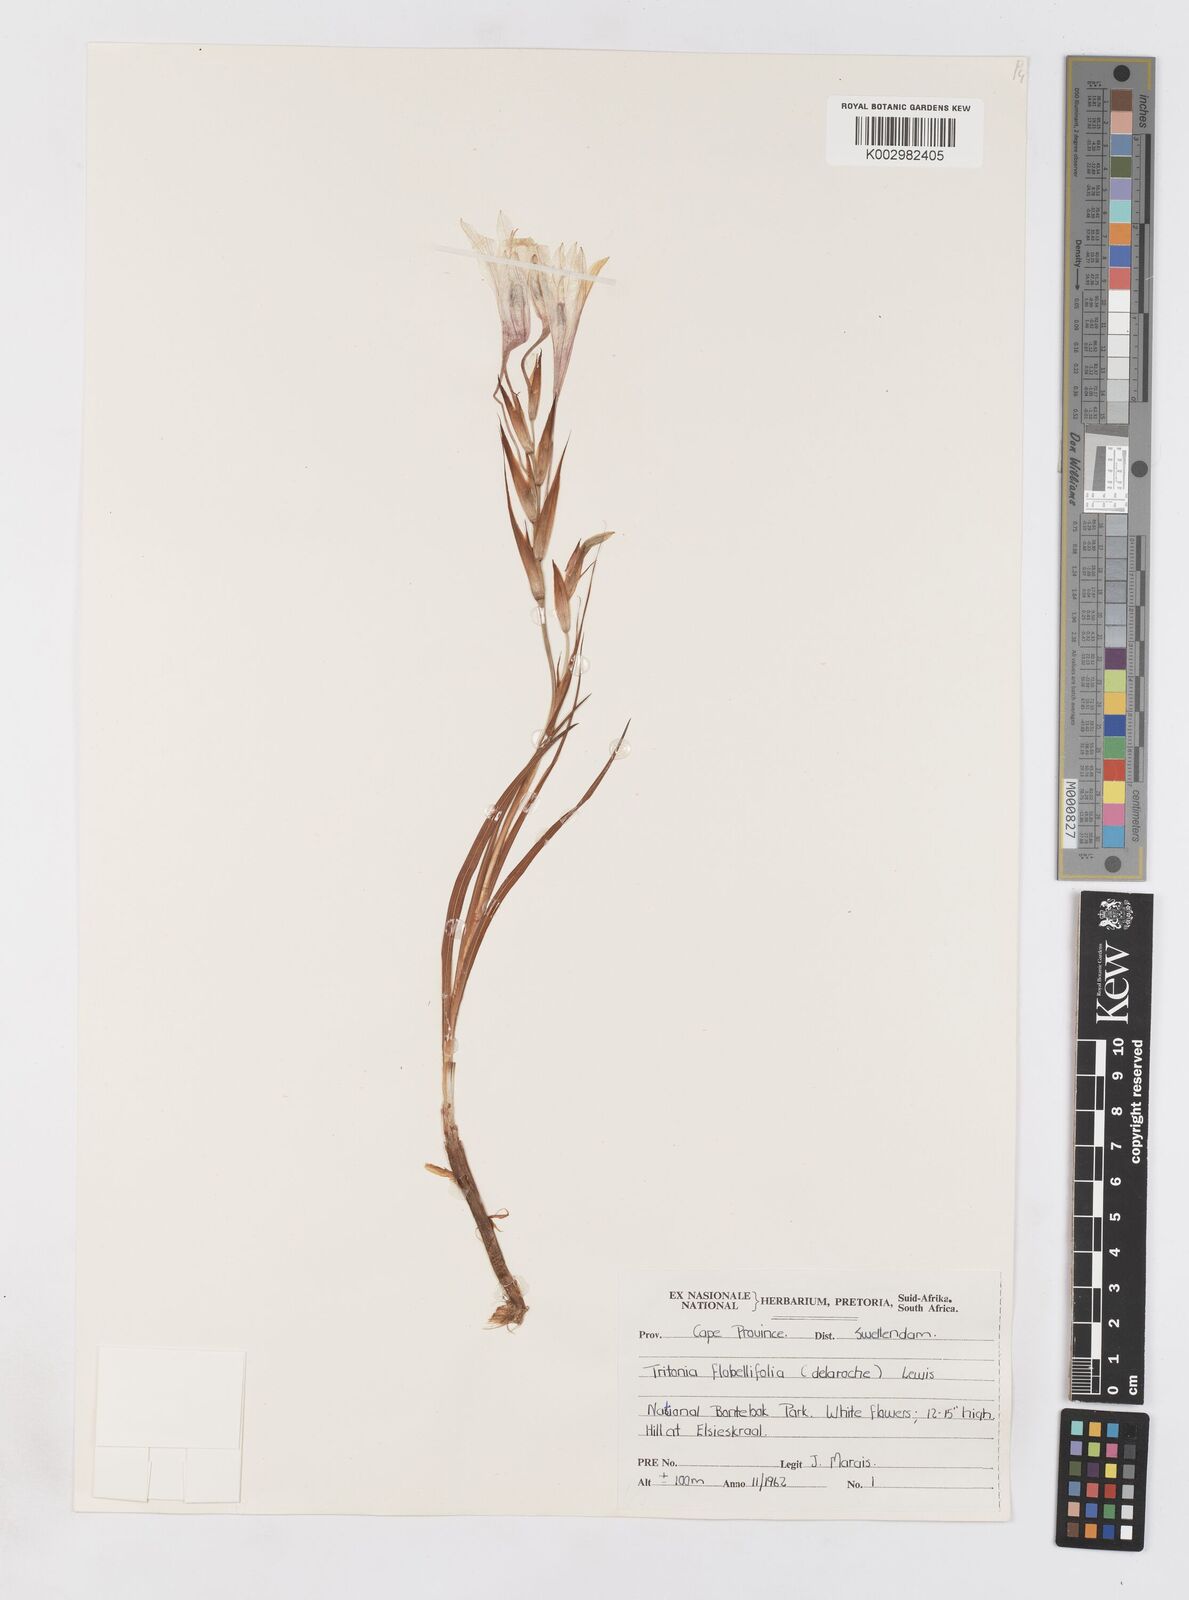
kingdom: Plantae
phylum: Tracheophyta
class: Liliopsida
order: Asparagales
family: Iridaceae
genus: Tritonia
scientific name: Tritonia flabellifolia
